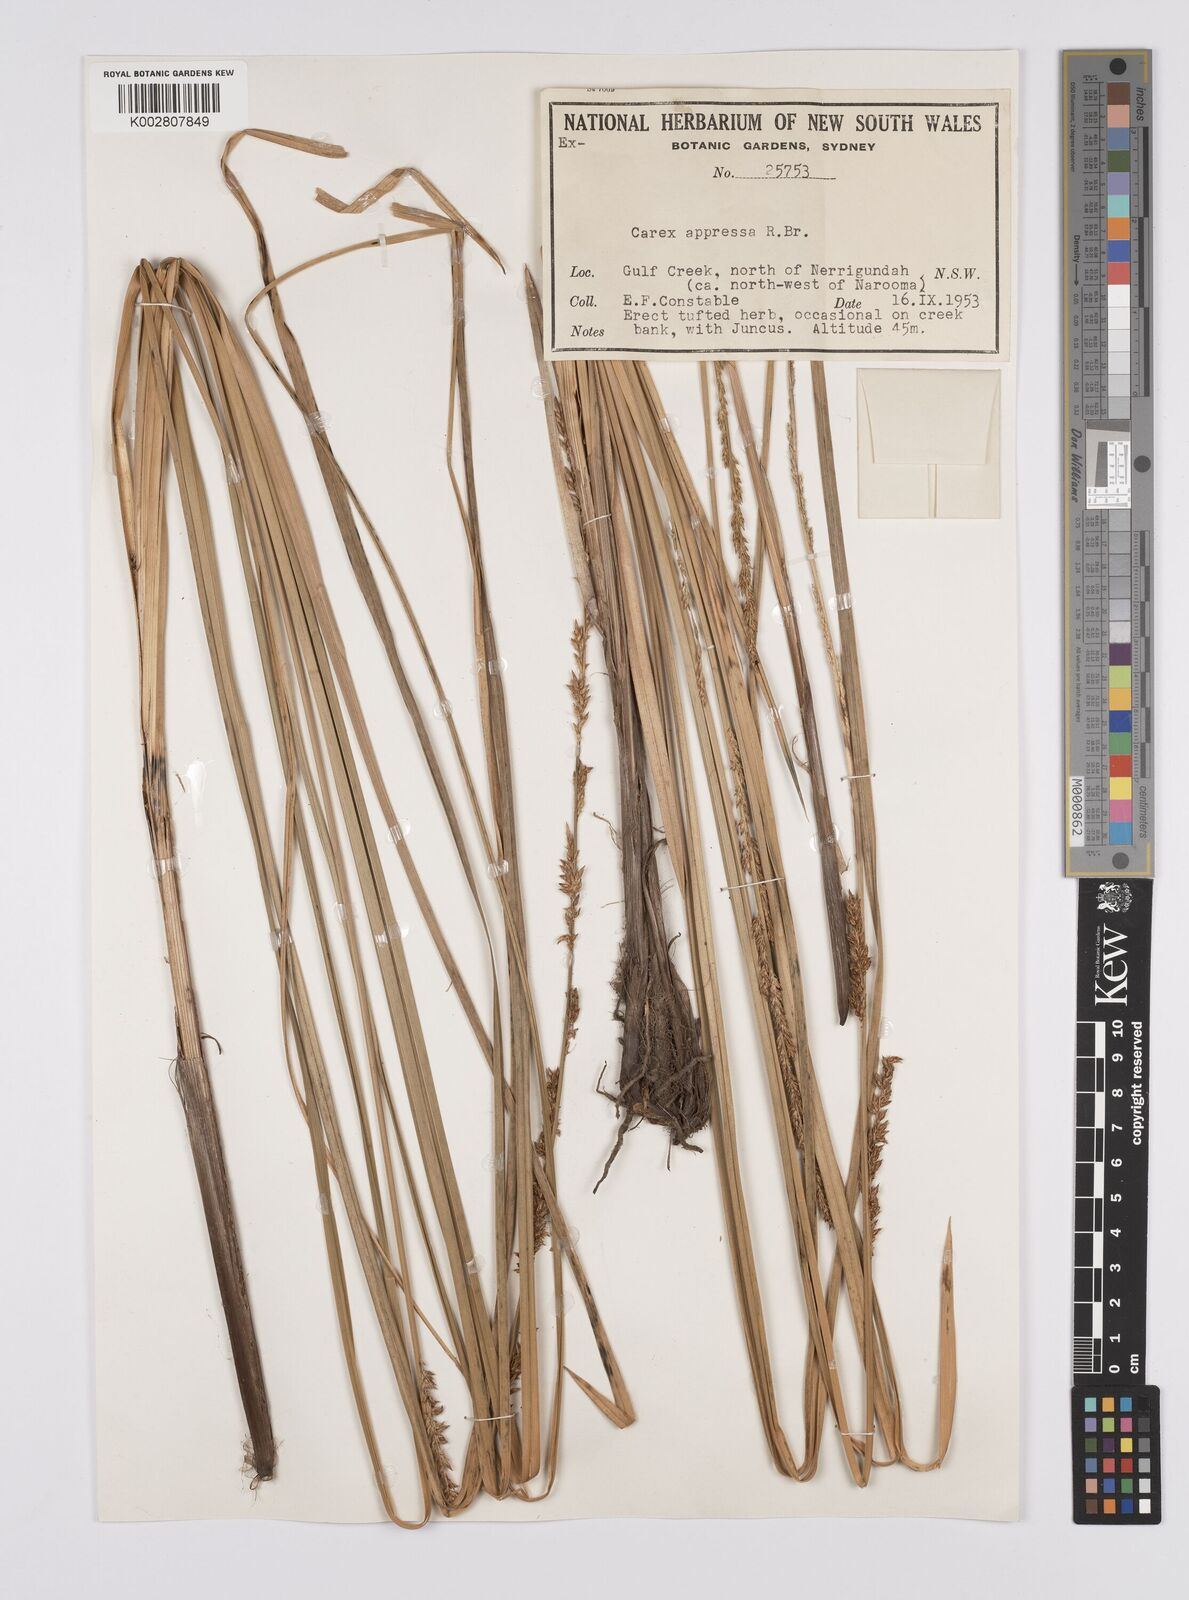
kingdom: Plantae
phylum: Tracheophyta
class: Liliopsida
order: Poales
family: Cyperaceae
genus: Carex
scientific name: Carex appressa
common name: Tussock sedge
